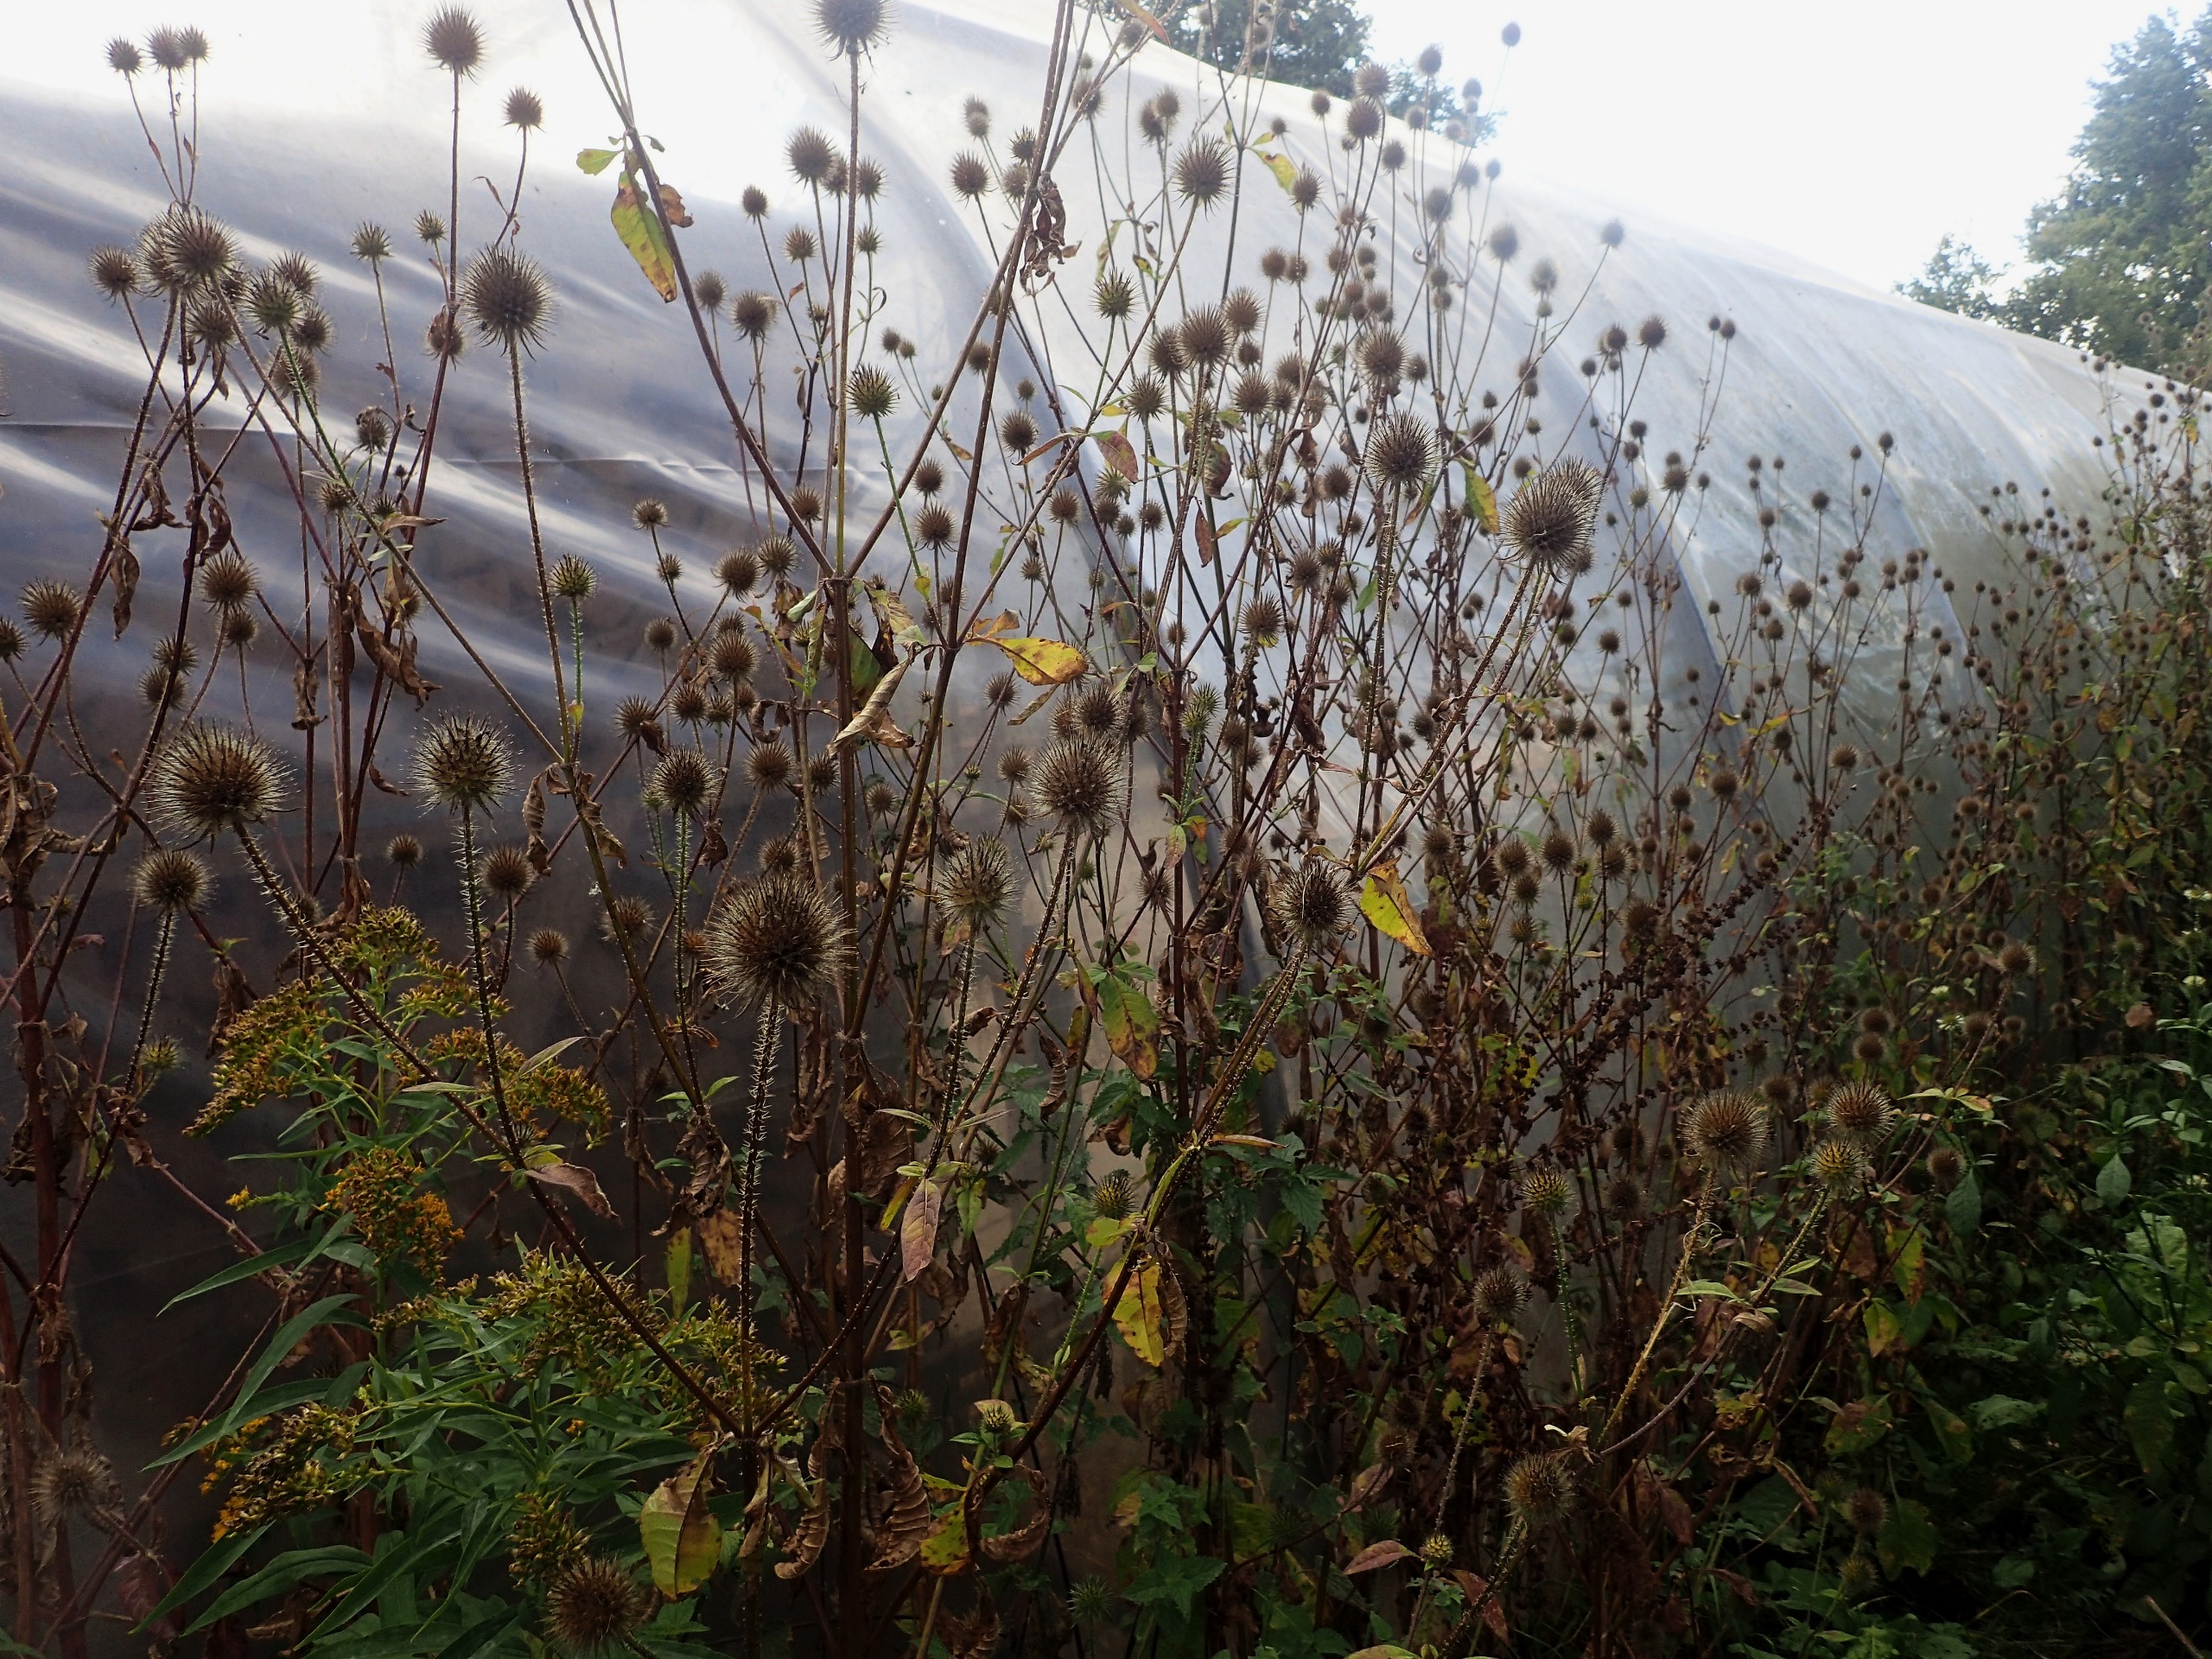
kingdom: Plantae
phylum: Tracheophyta
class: Magnoliopsida
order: Dipsacales
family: Caprifoliaceae
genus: Dipsacus
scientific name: Dipsacus strigosus
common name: Pindsvin-kartebolle
